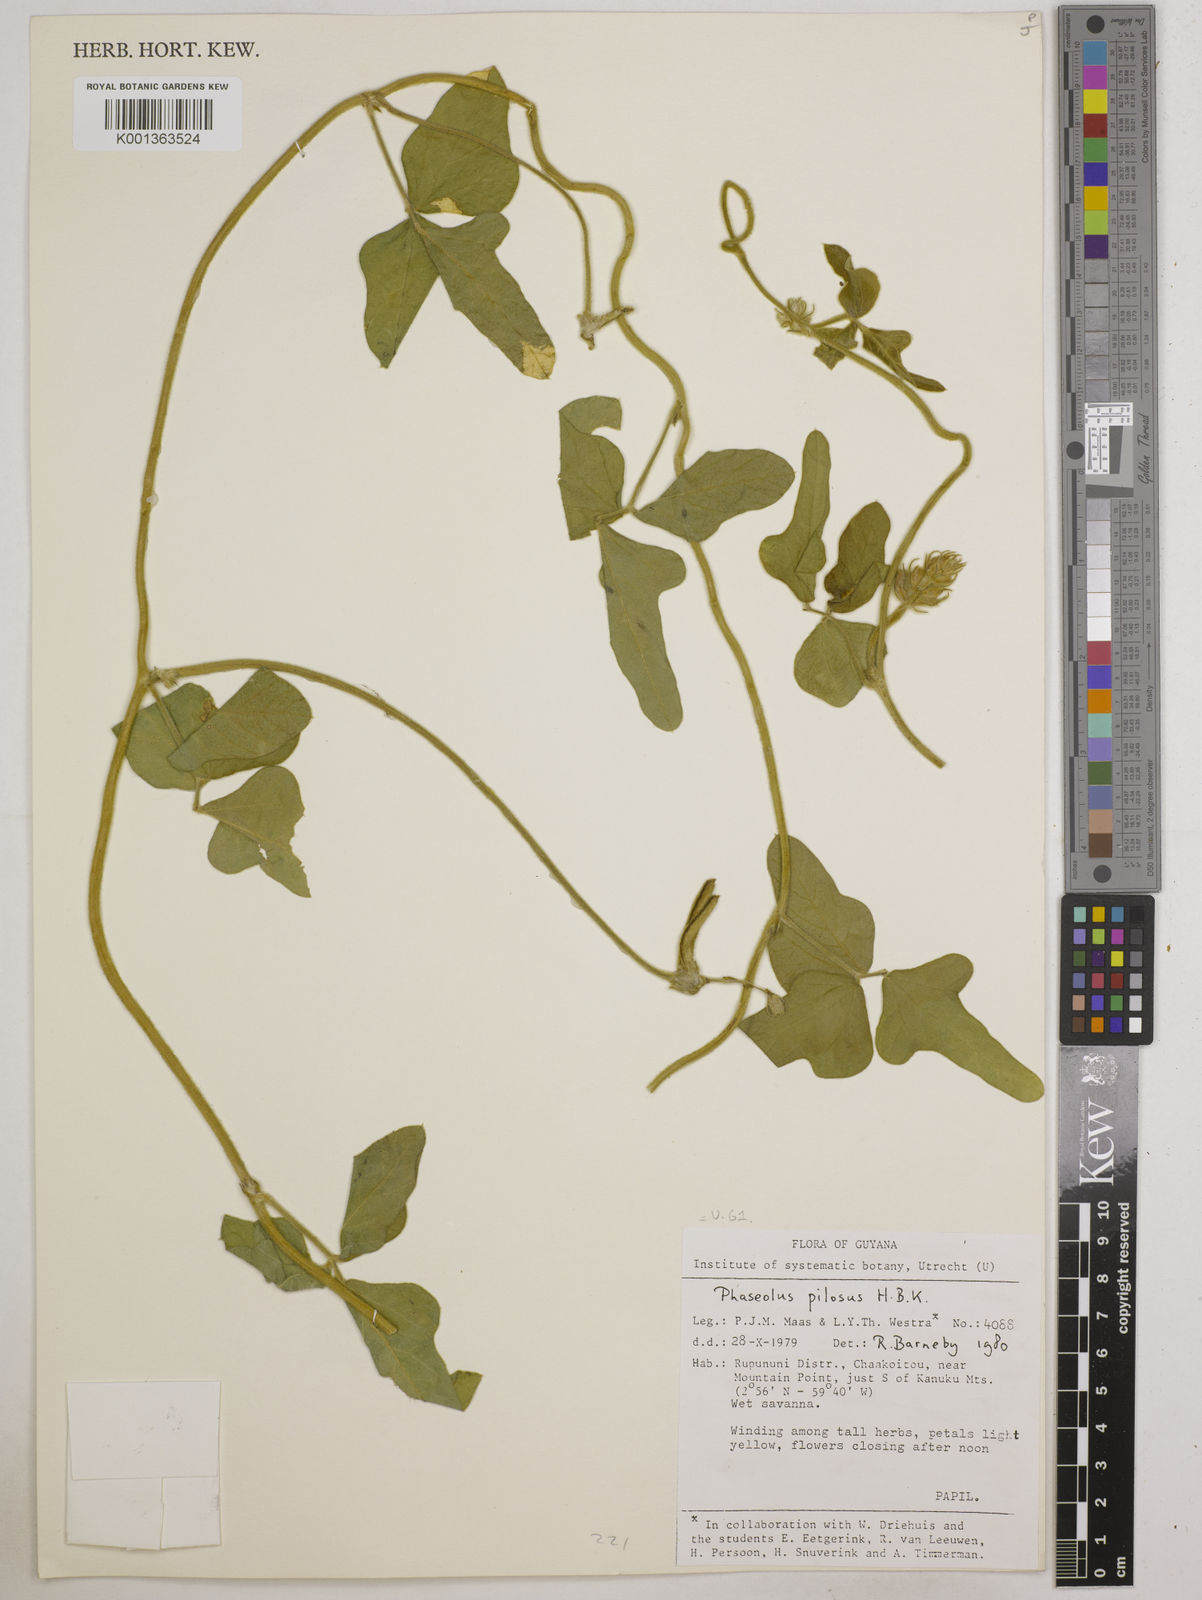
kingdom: Plantae
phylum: Tracheophyta
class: Magnoliopsida
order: Fabales
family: Fabaceae
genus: Vigna
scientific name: Vigna lasiocarpa
